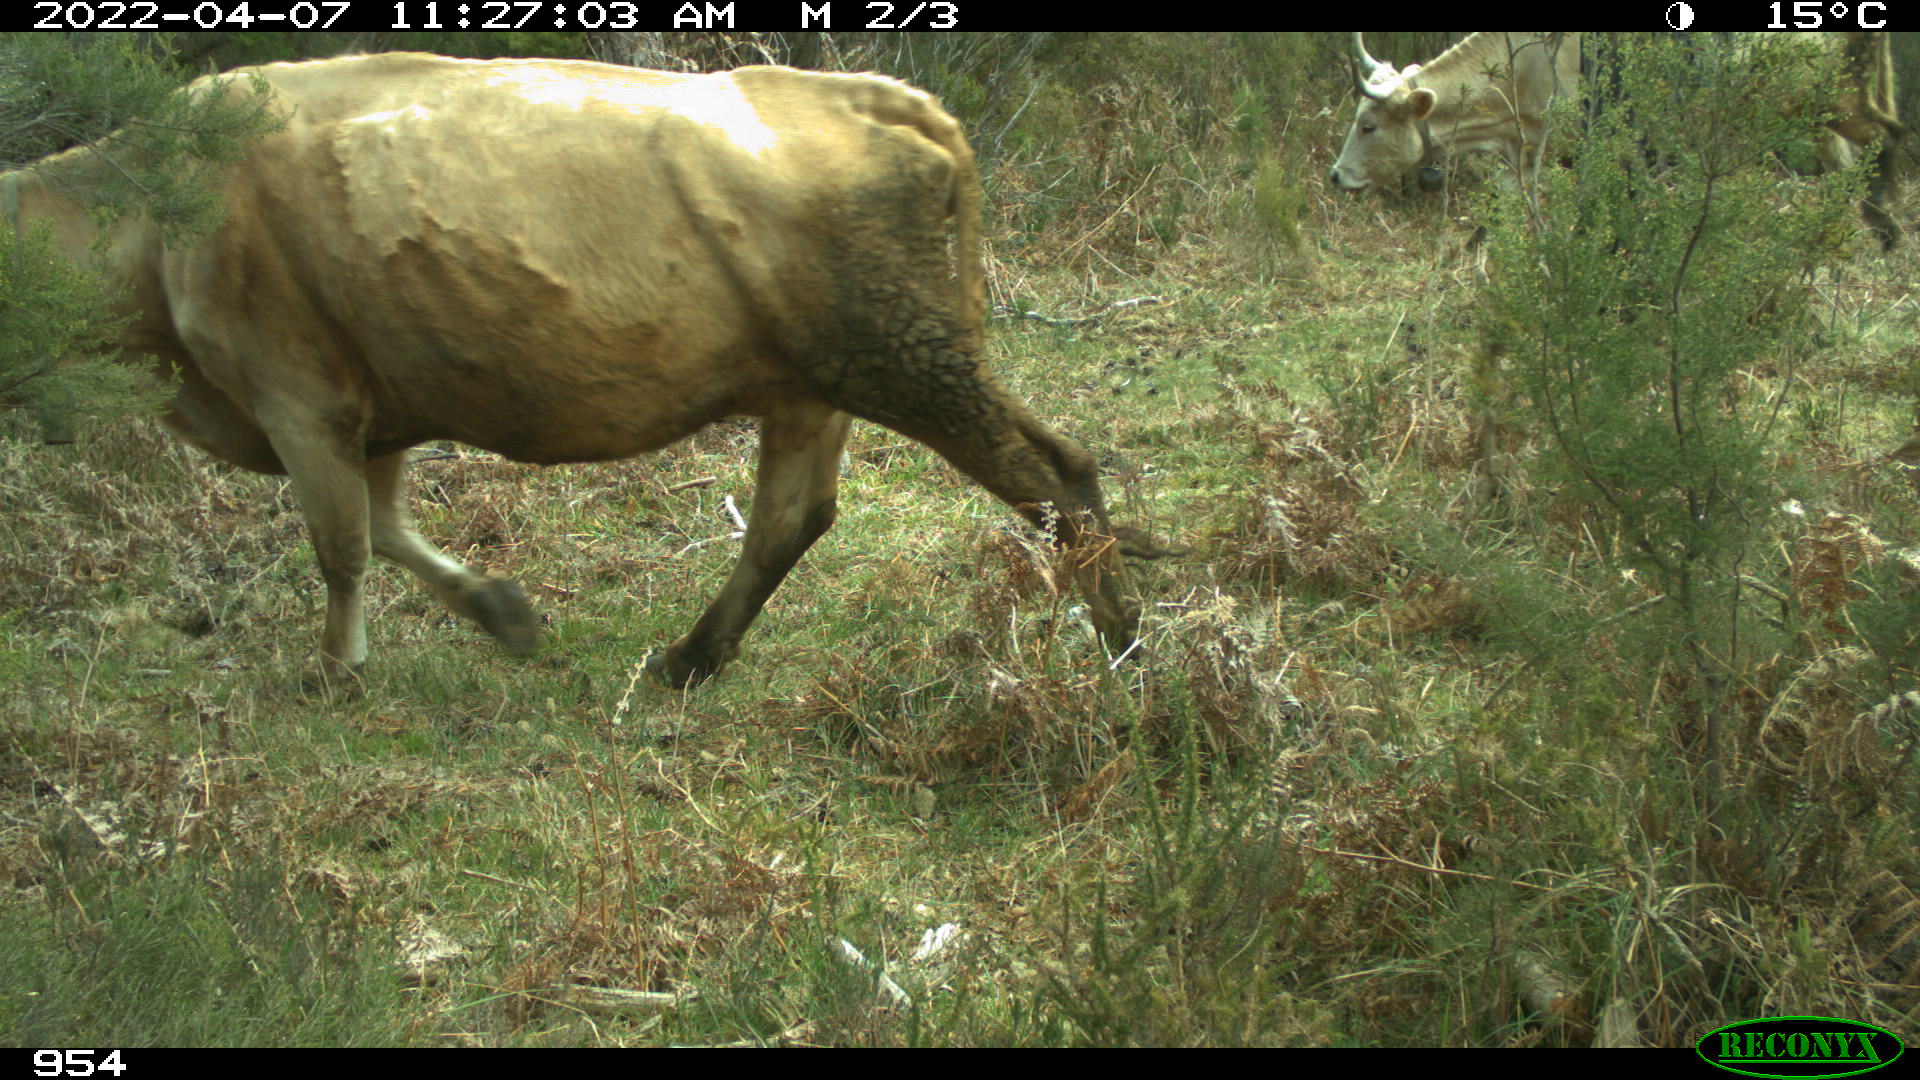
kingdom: Animalia
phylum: Chordata
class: Mammalia
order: Artiodactyla
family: Bovidae
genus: Bos
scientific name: Bos taurus
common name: Domesticated cattle
